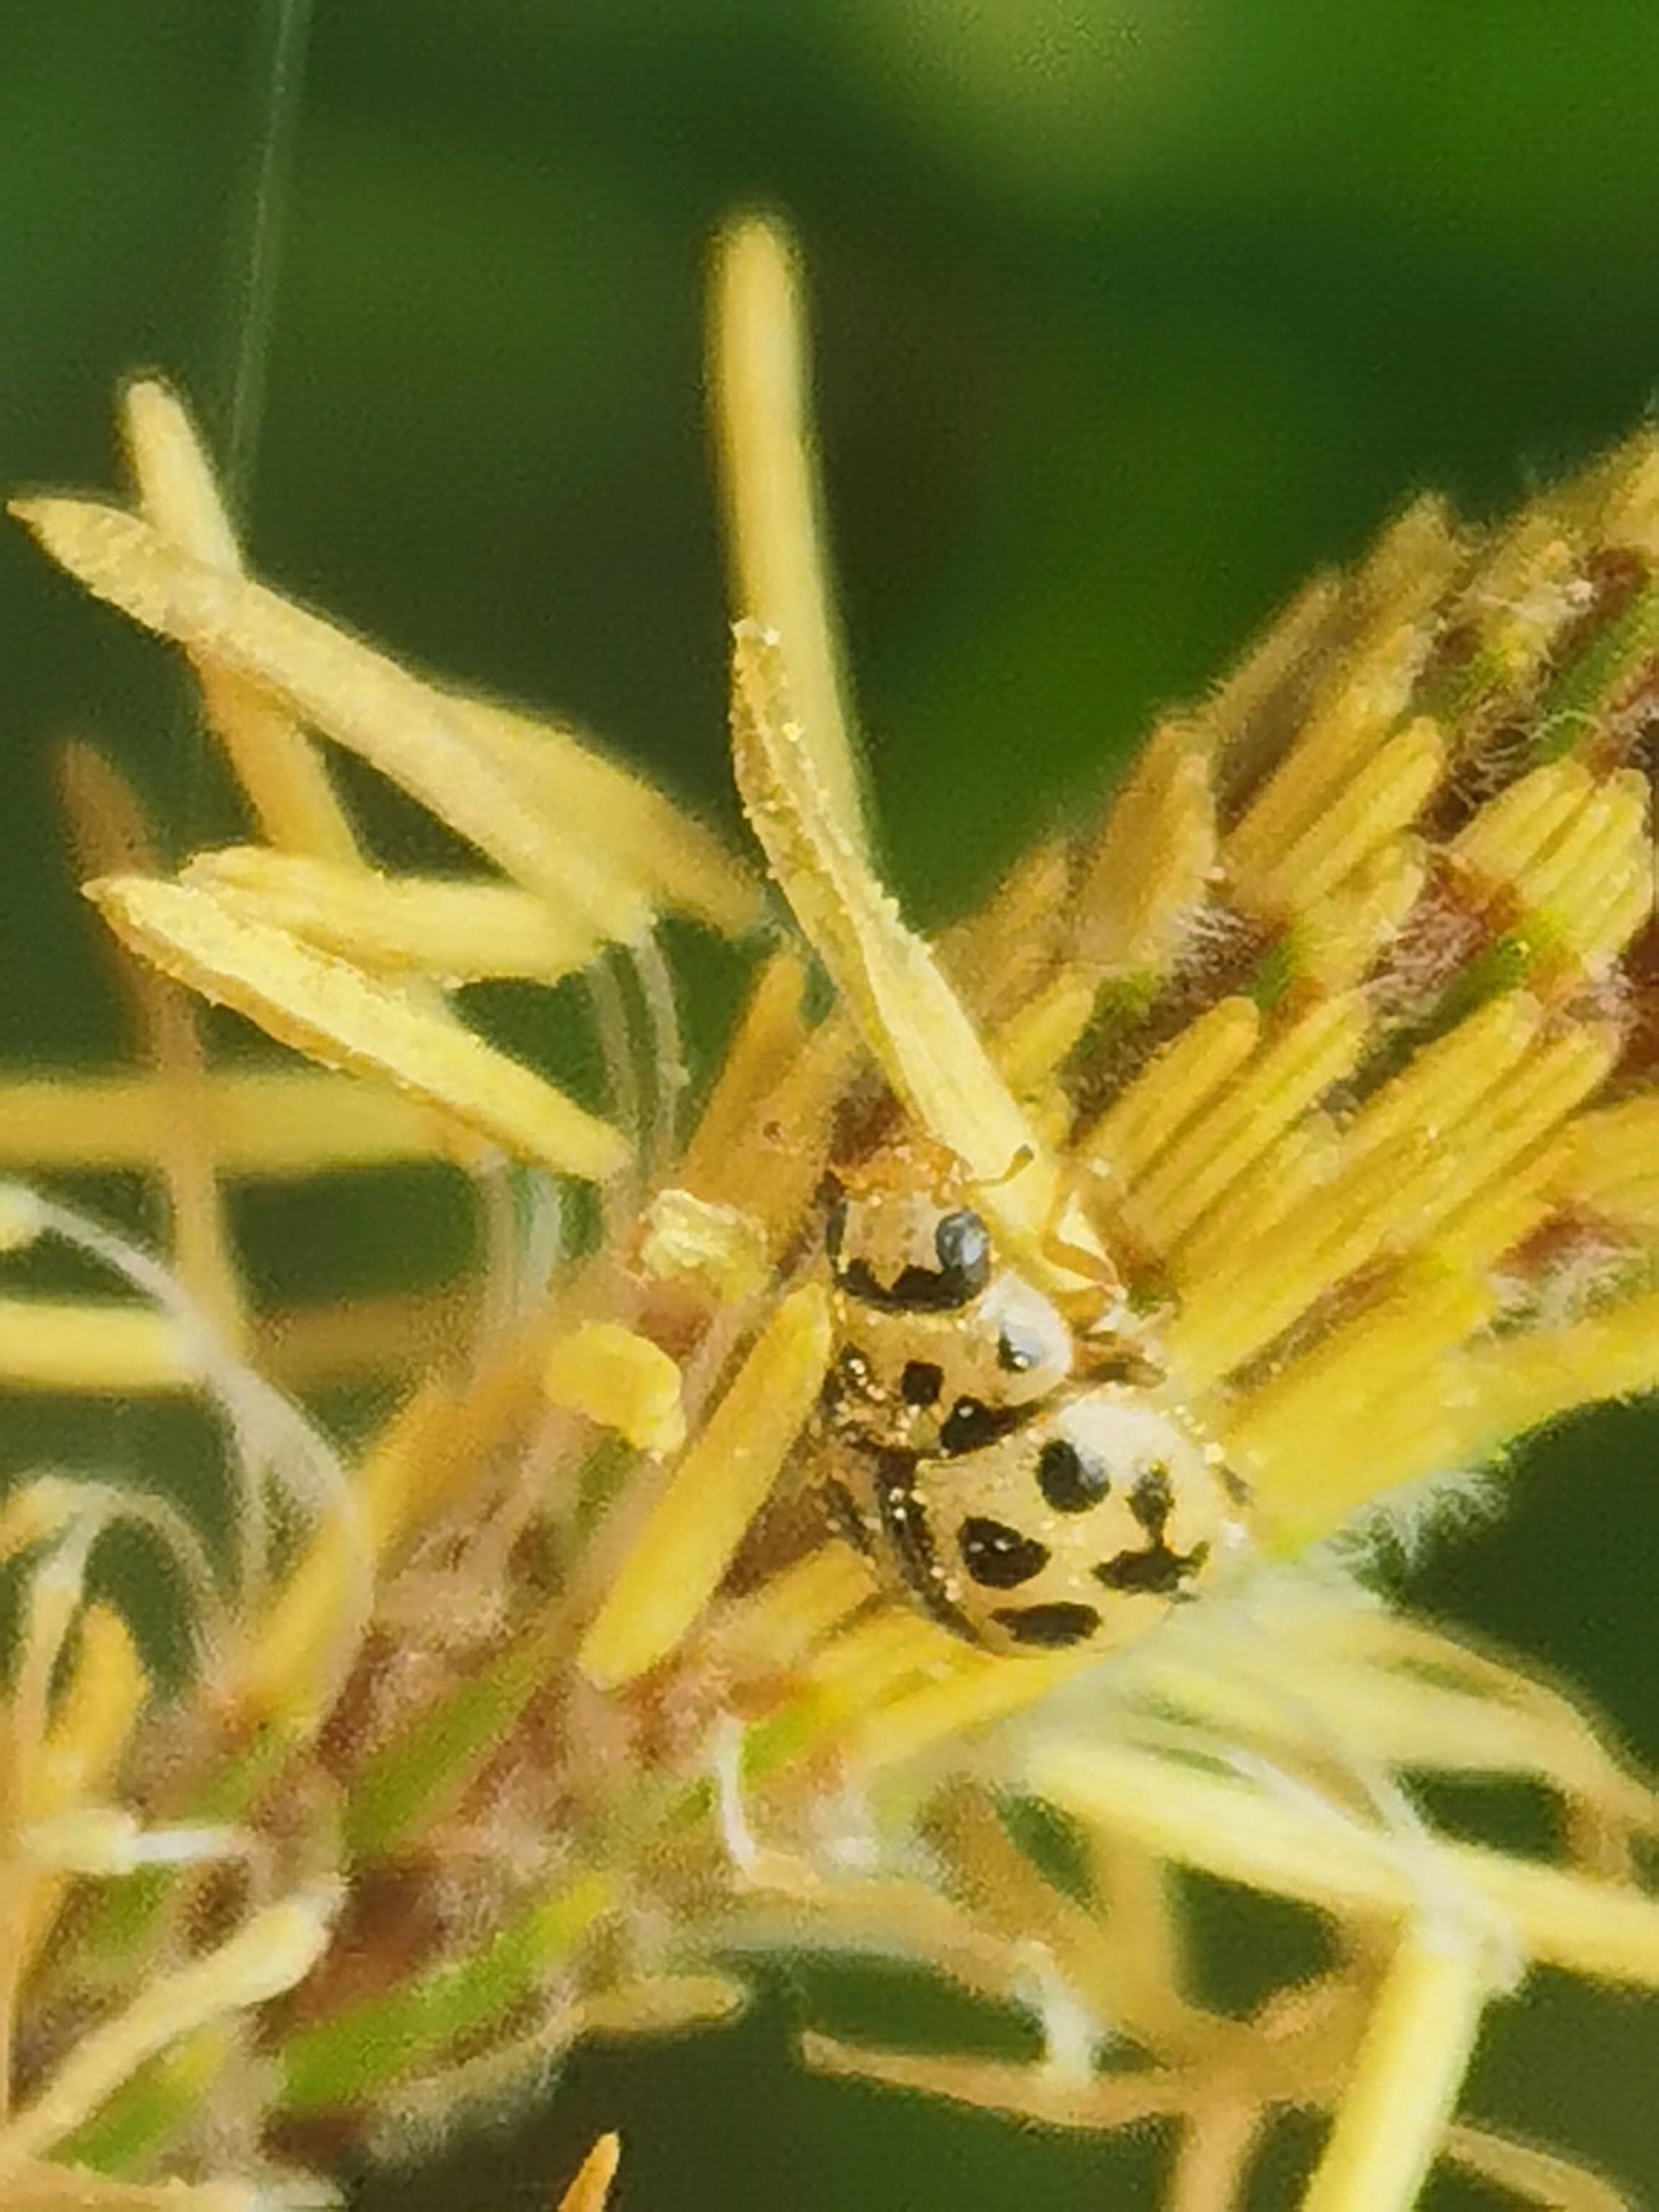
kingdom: Animalia
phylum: Arthropoda
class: Insecta
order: Coleoptera
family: Coccinellidae
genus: Tytthaspis
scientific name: Tytthaspis sedecimpunctata
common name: Sekstenprikket mariehøne
